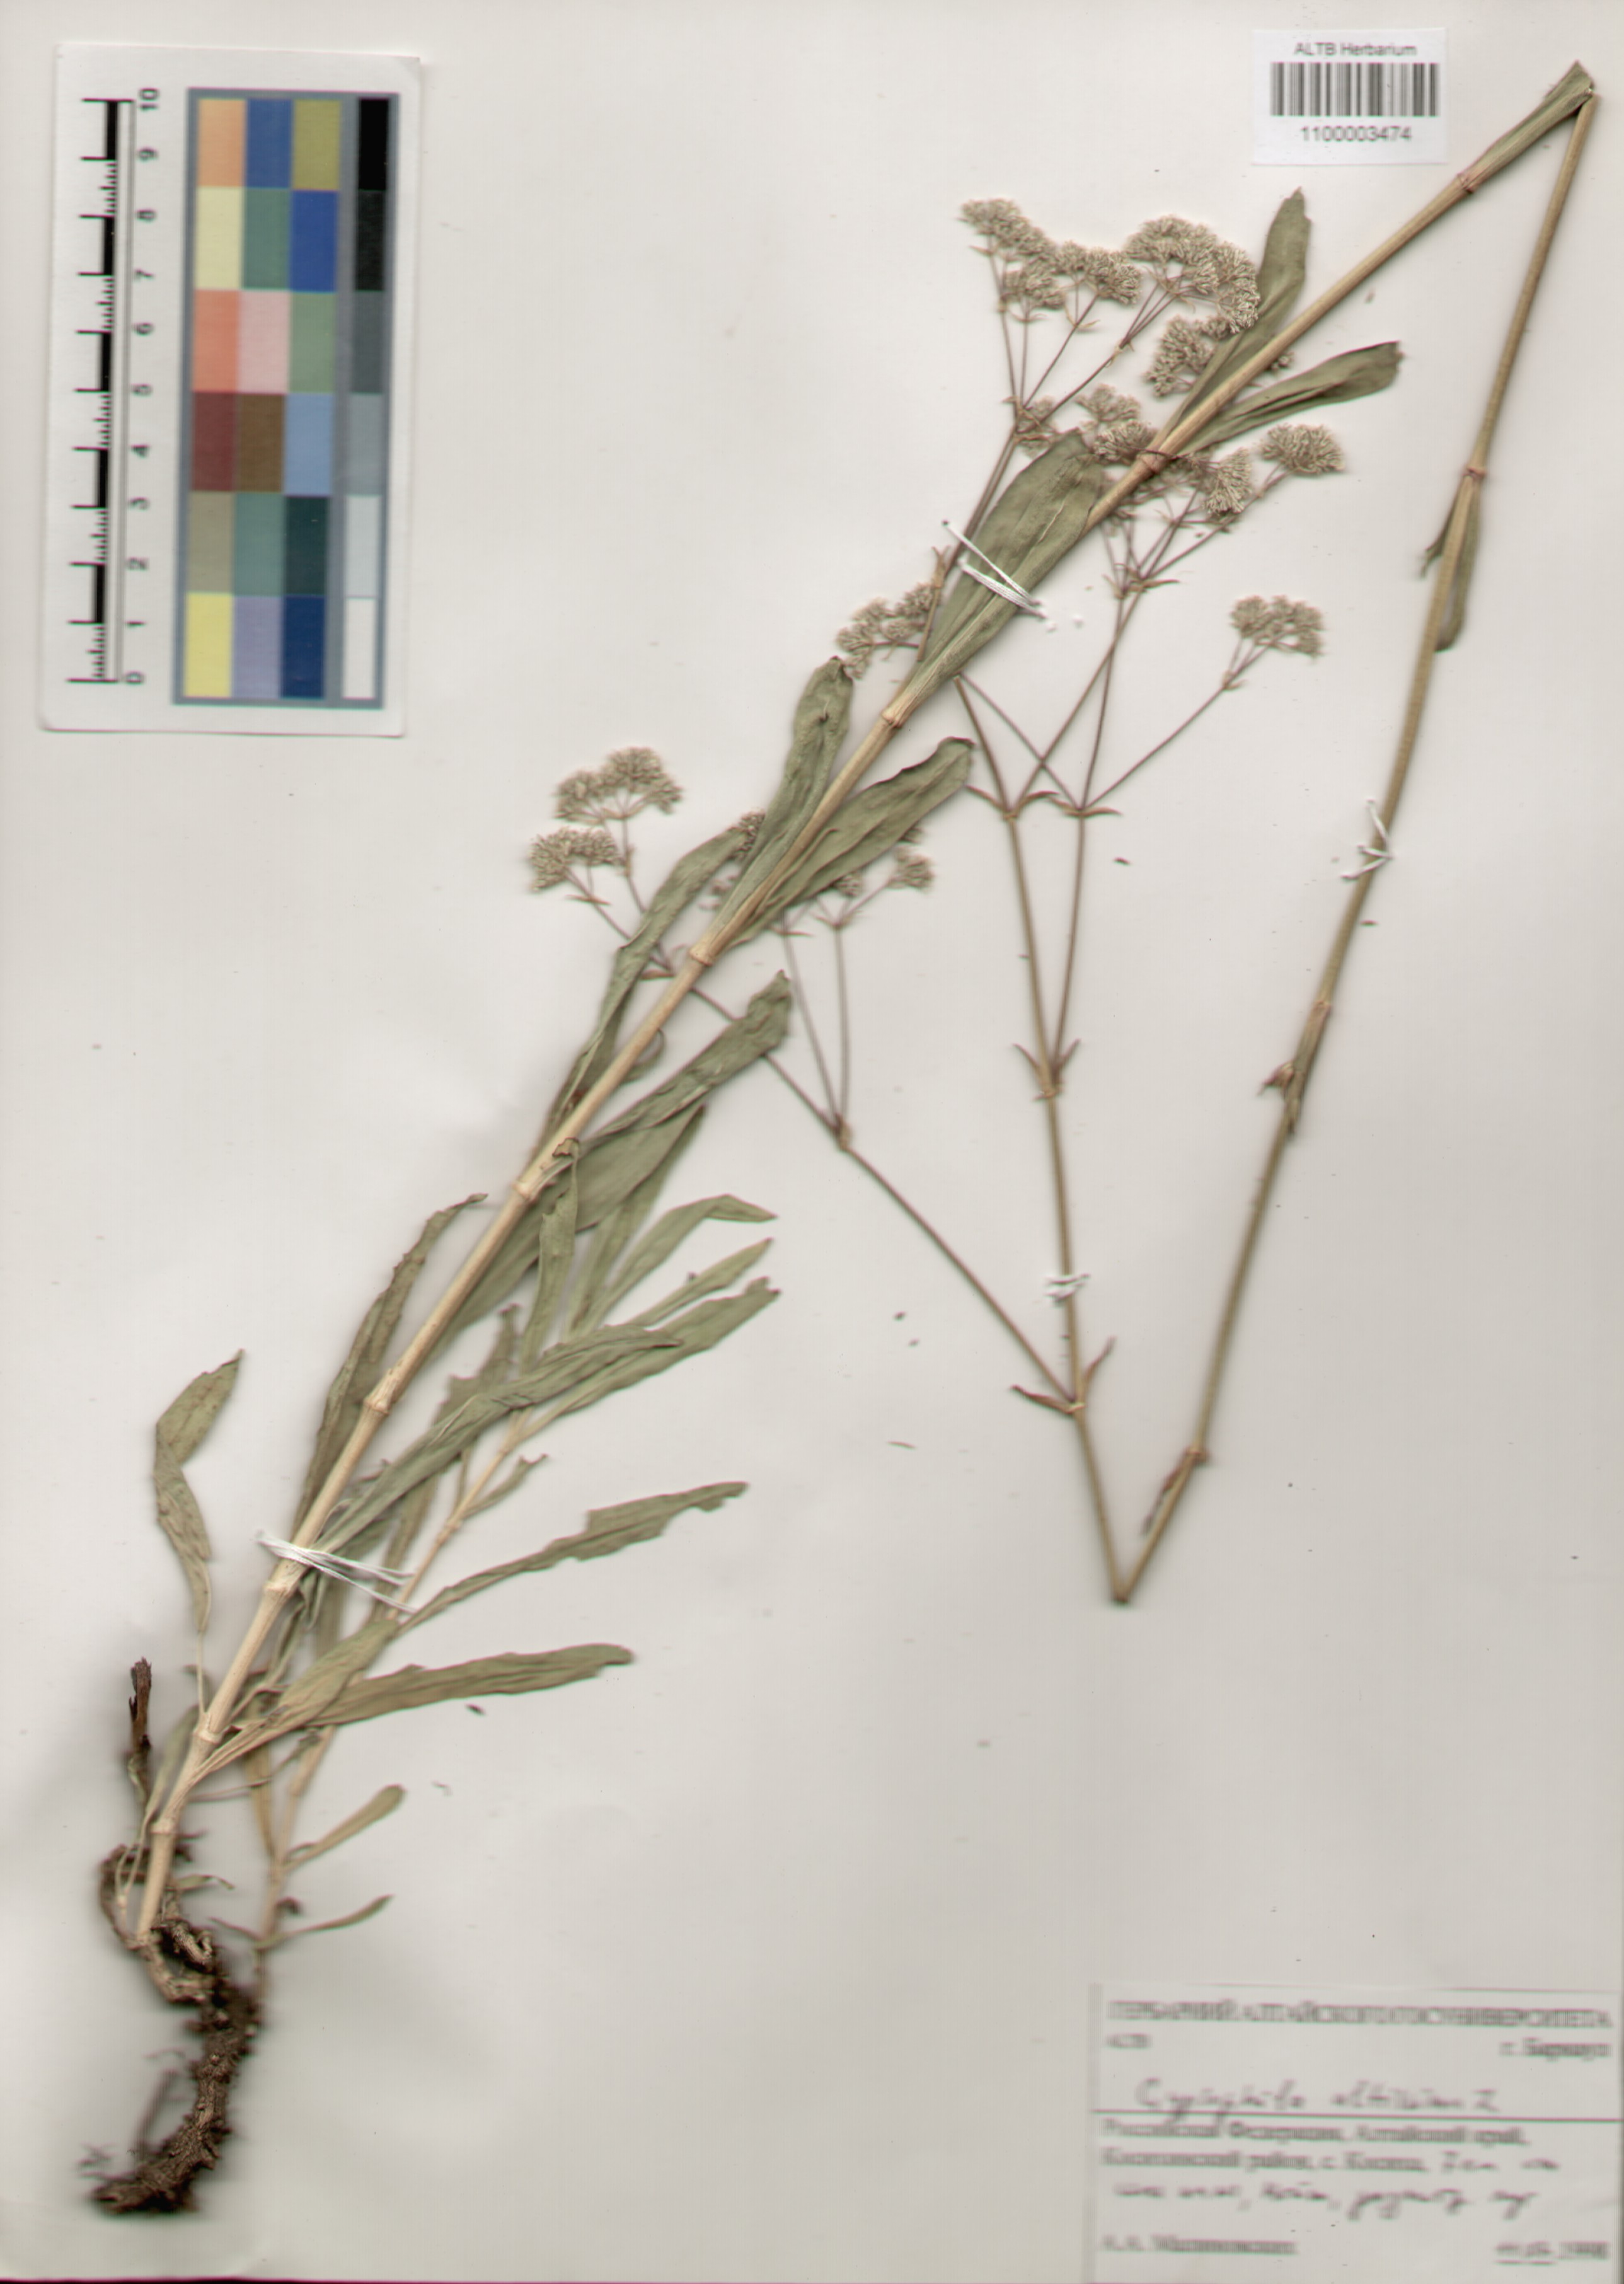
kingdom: Plantae
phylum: Tracheophyta
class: Magnoliopsida
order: Caryophyllales
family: Caryophyllaceae
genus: Gypsophila
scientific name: Gypsophila altissima
